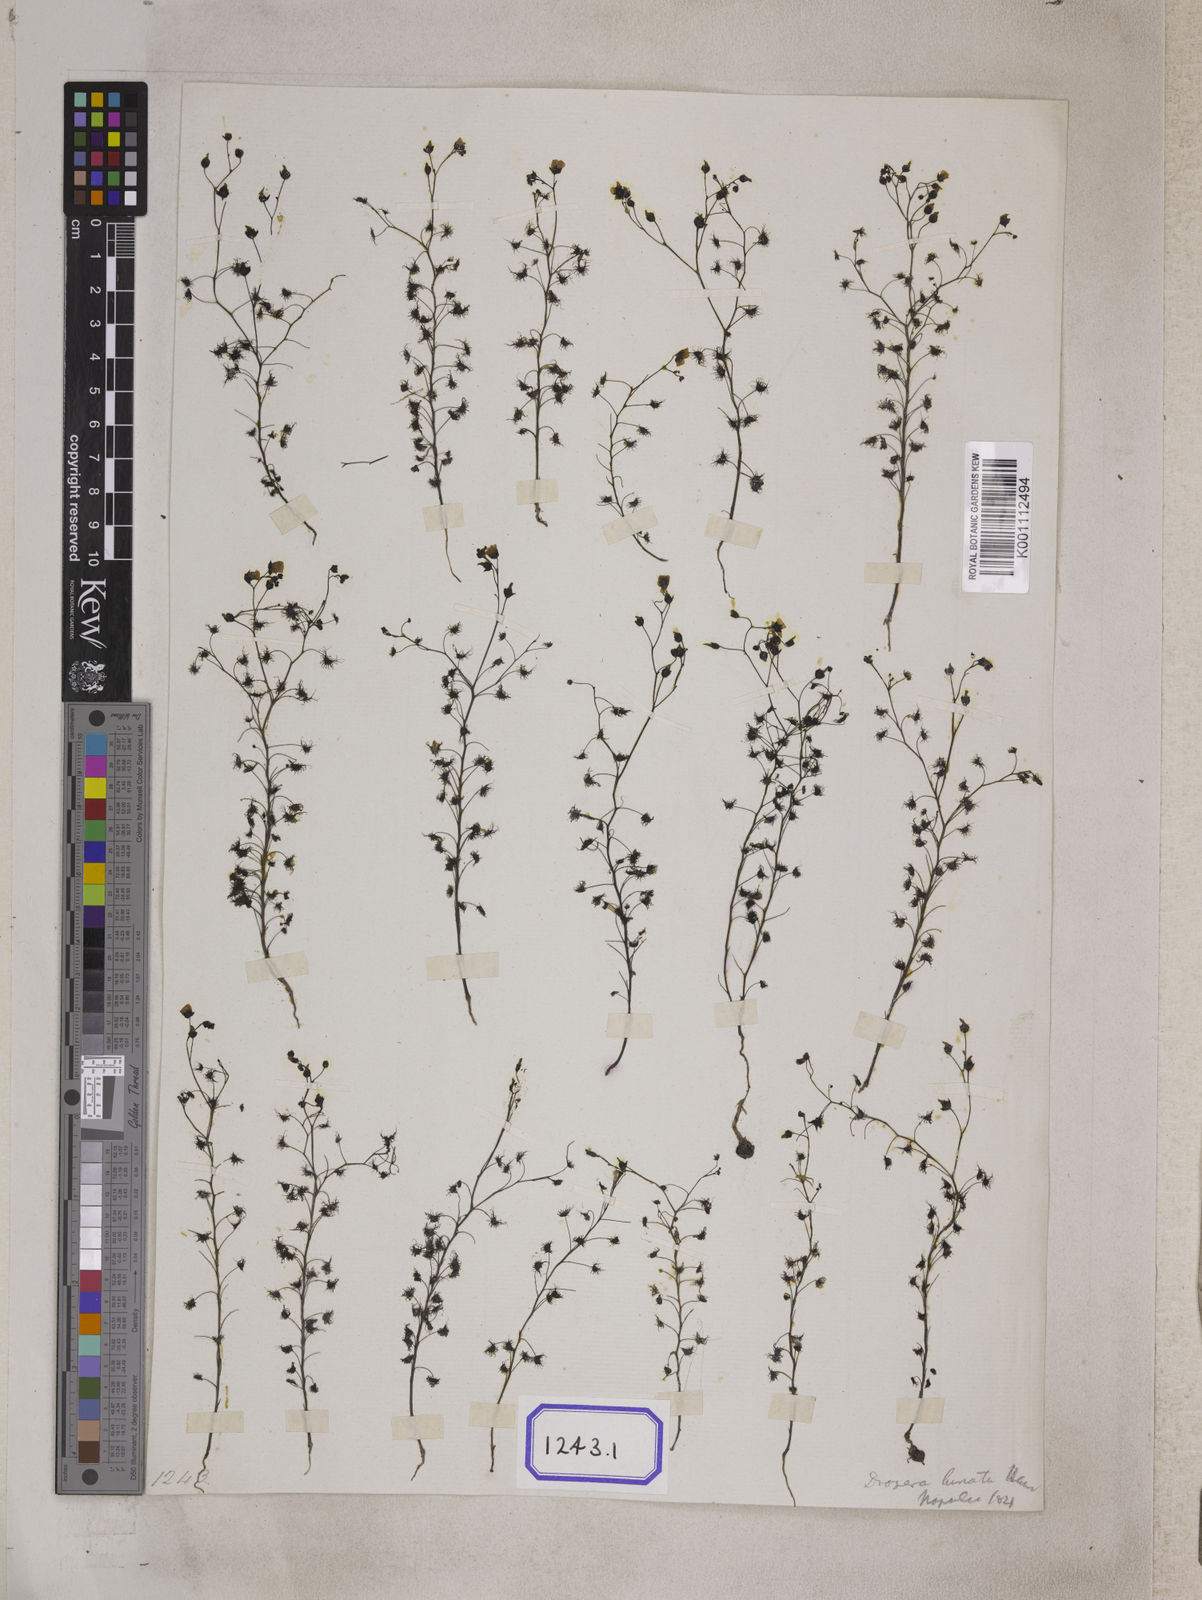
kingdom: Plantae
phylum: Tracheophyta
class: Magnoliopsida
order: Caryophyllales
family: Droseraceae
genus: Drosera
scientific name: Drosera
